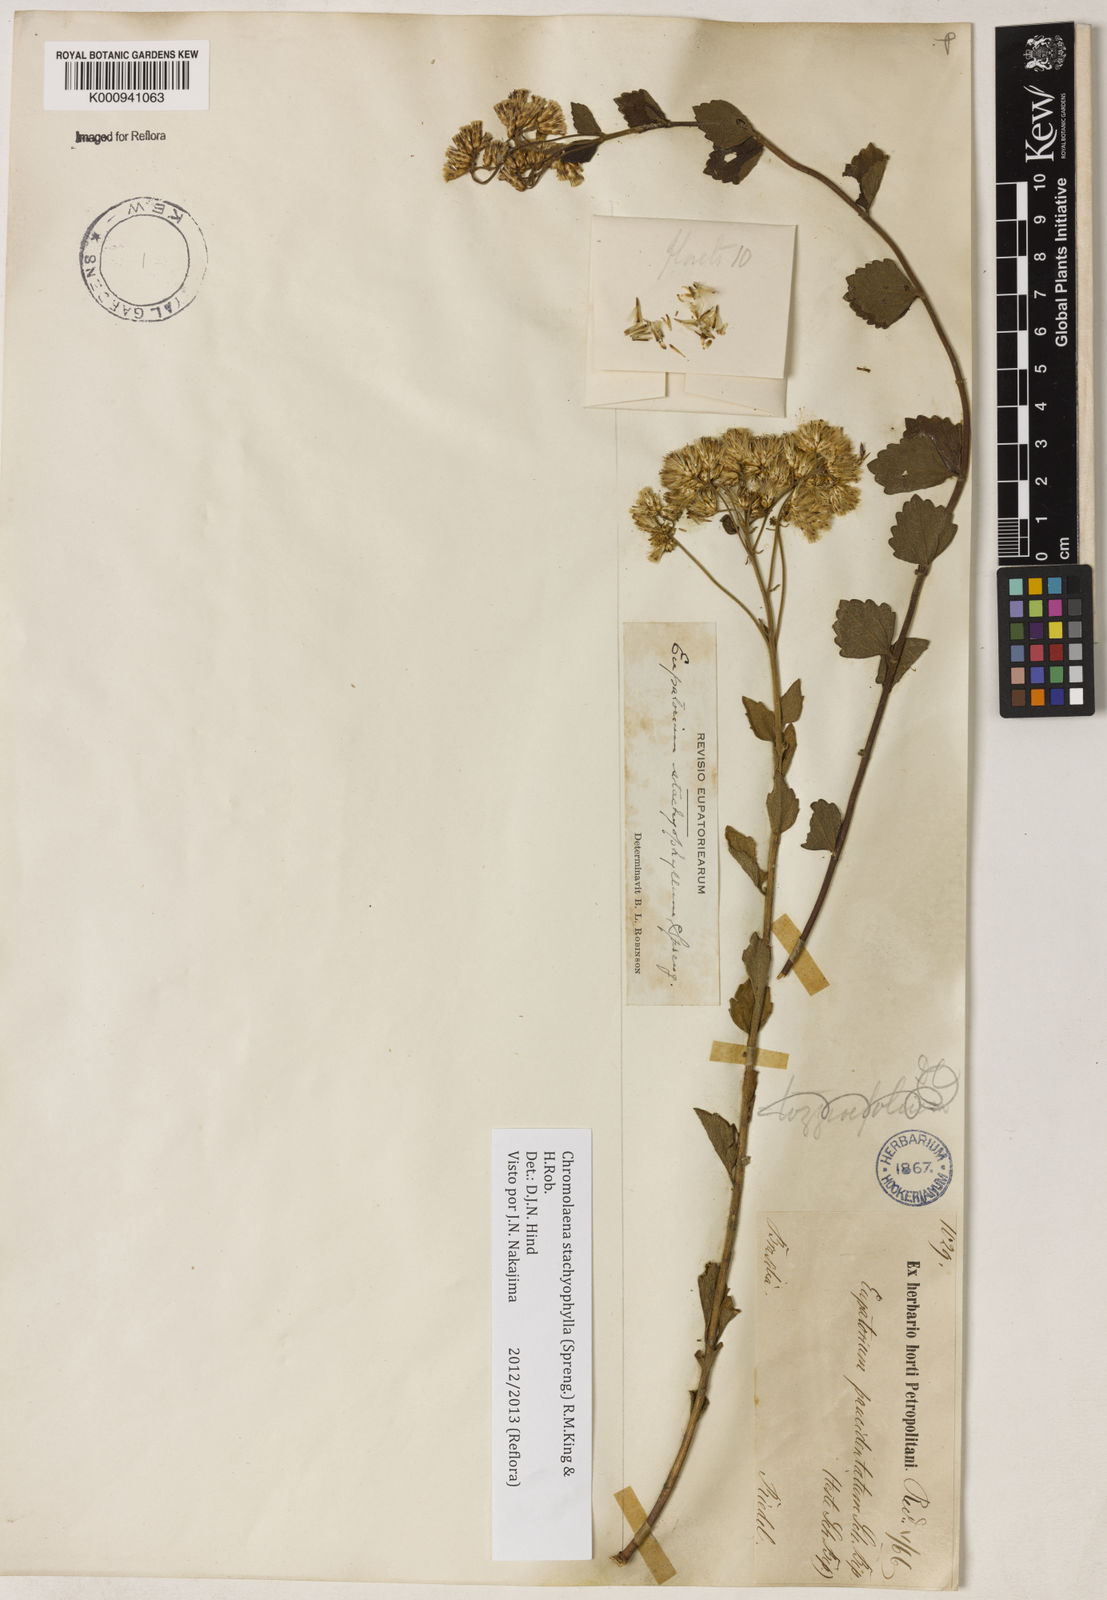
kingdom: Plantae
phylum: Tracheophyta
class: Magnoliopsida
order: Asterales
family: Asteraceae
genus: Chromolaena
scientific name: Chromolaena stachyophylla
